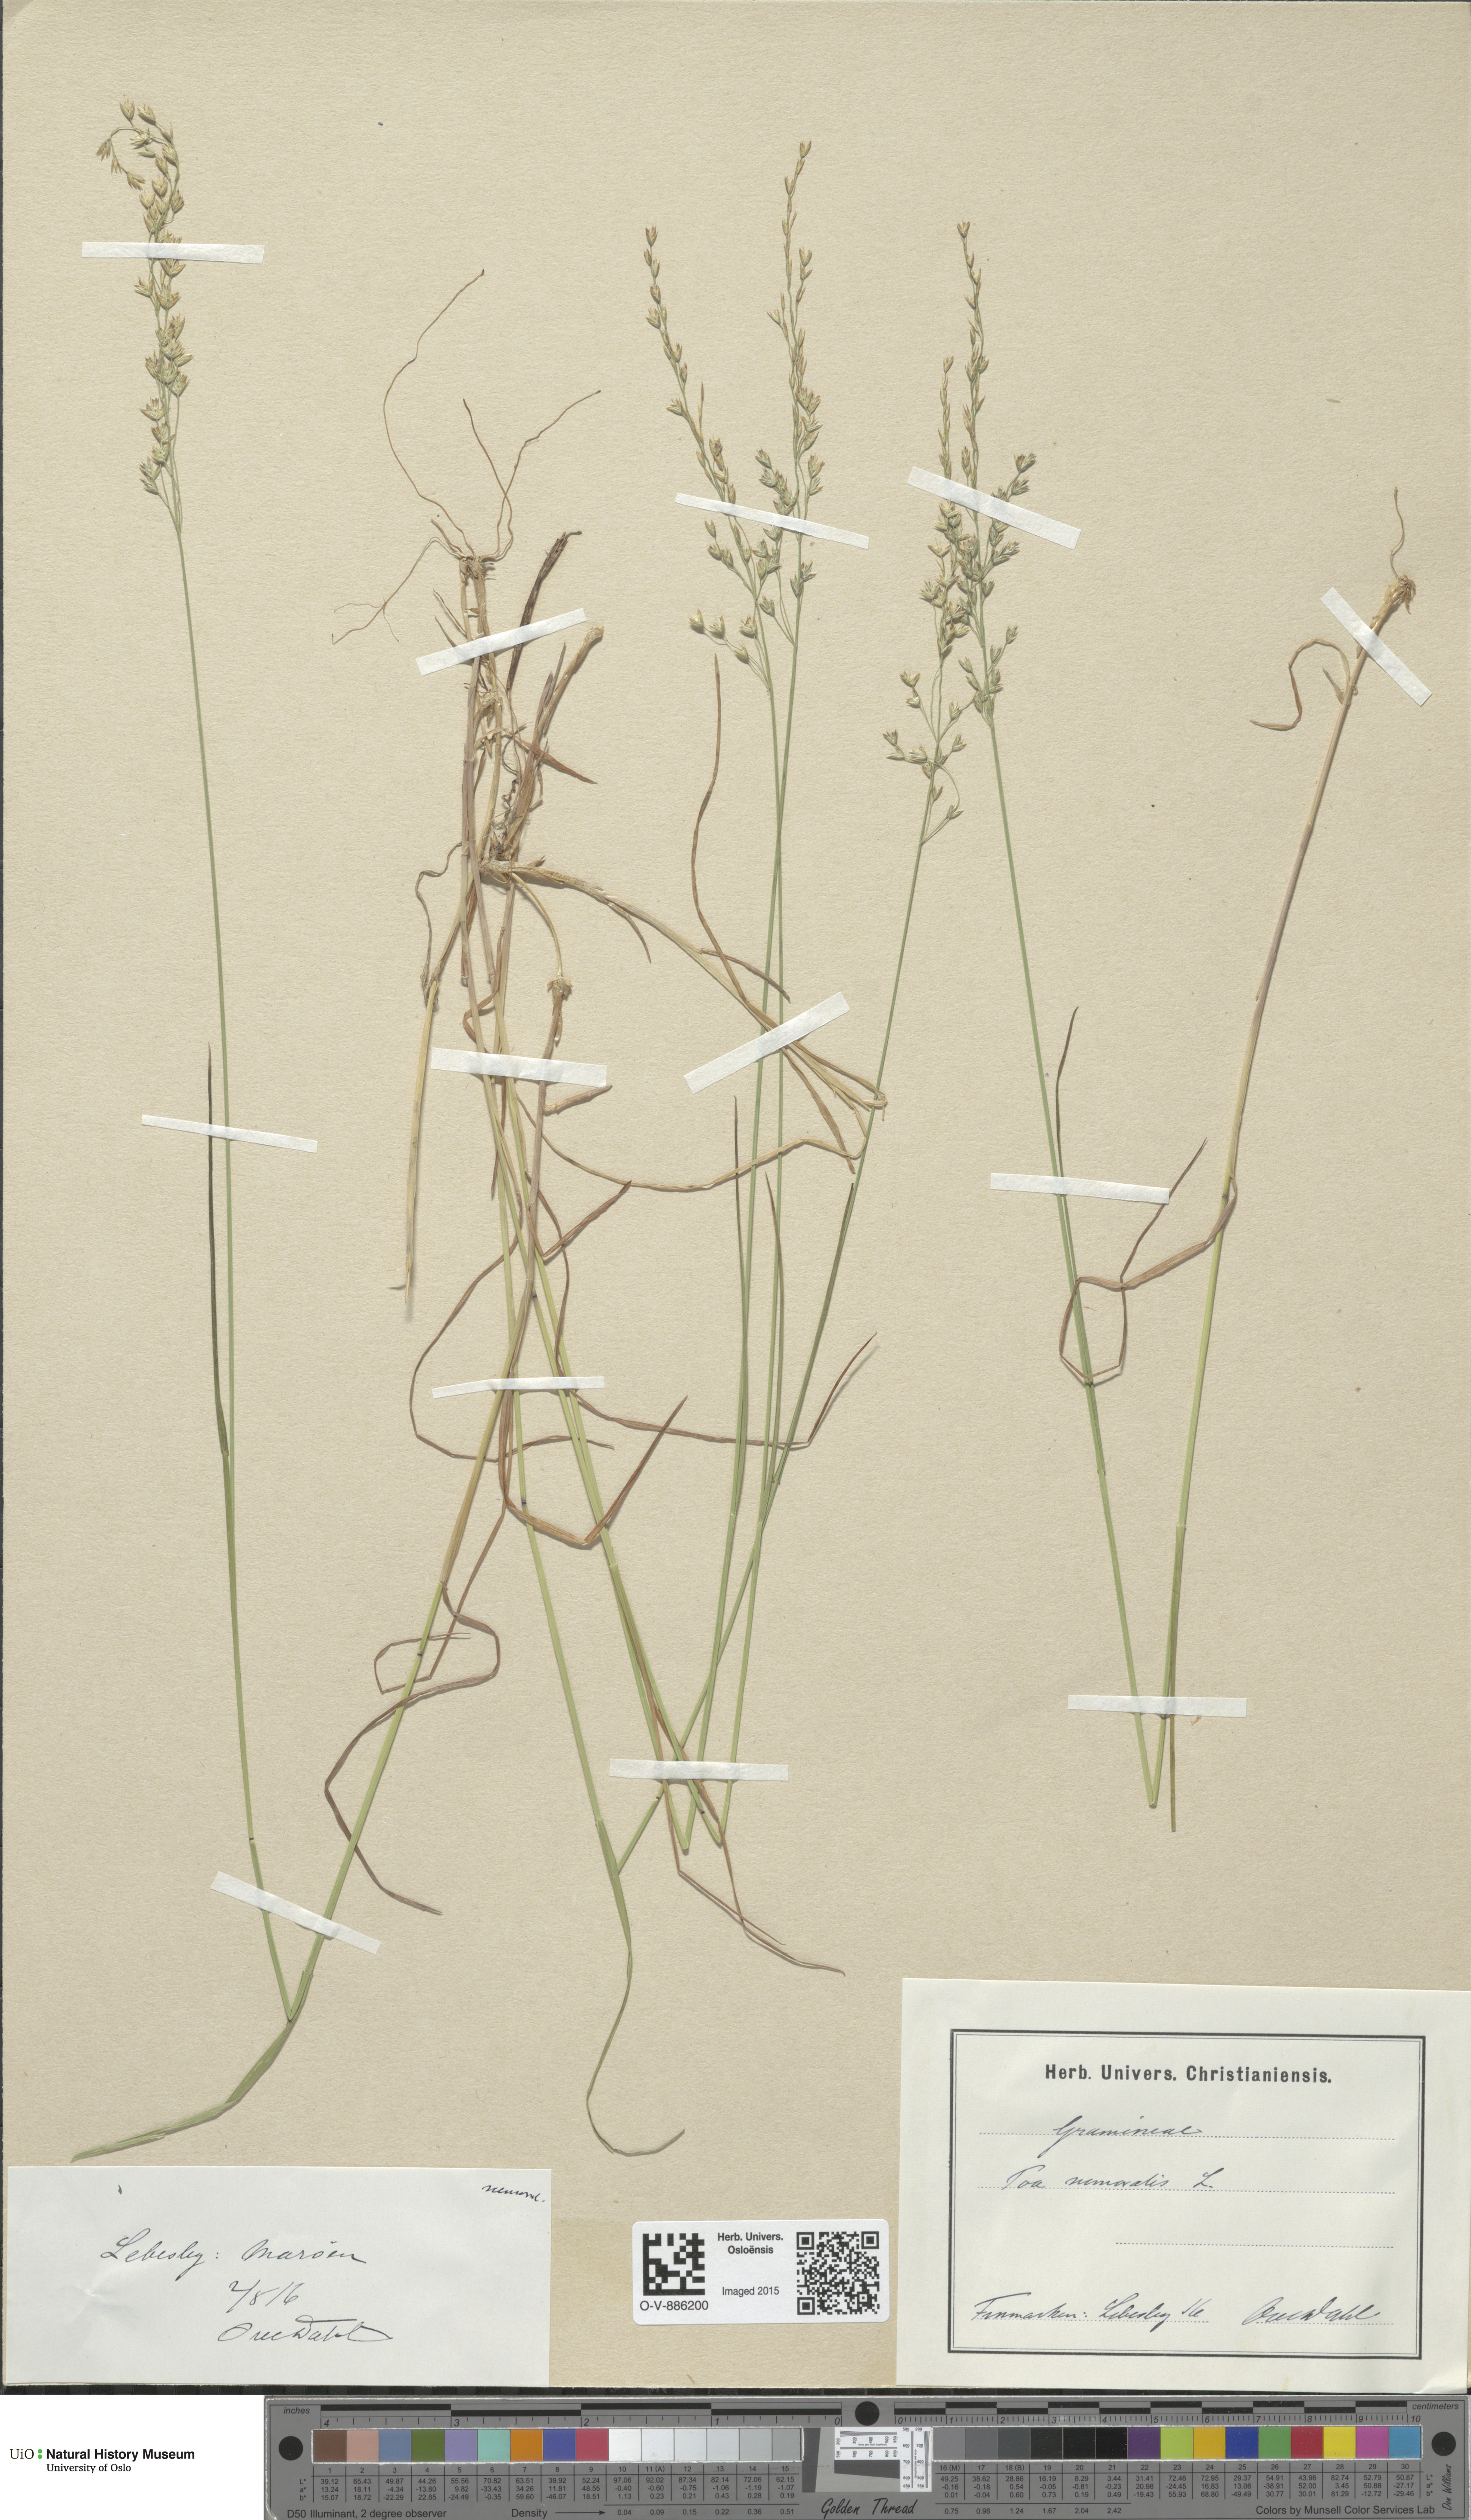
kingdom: Plantae
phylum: Tracheophyta
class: Liliopsida
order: Poales
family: Poaceae
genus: Poa
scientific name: Poa nemoralis
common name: Wood bluegrass
